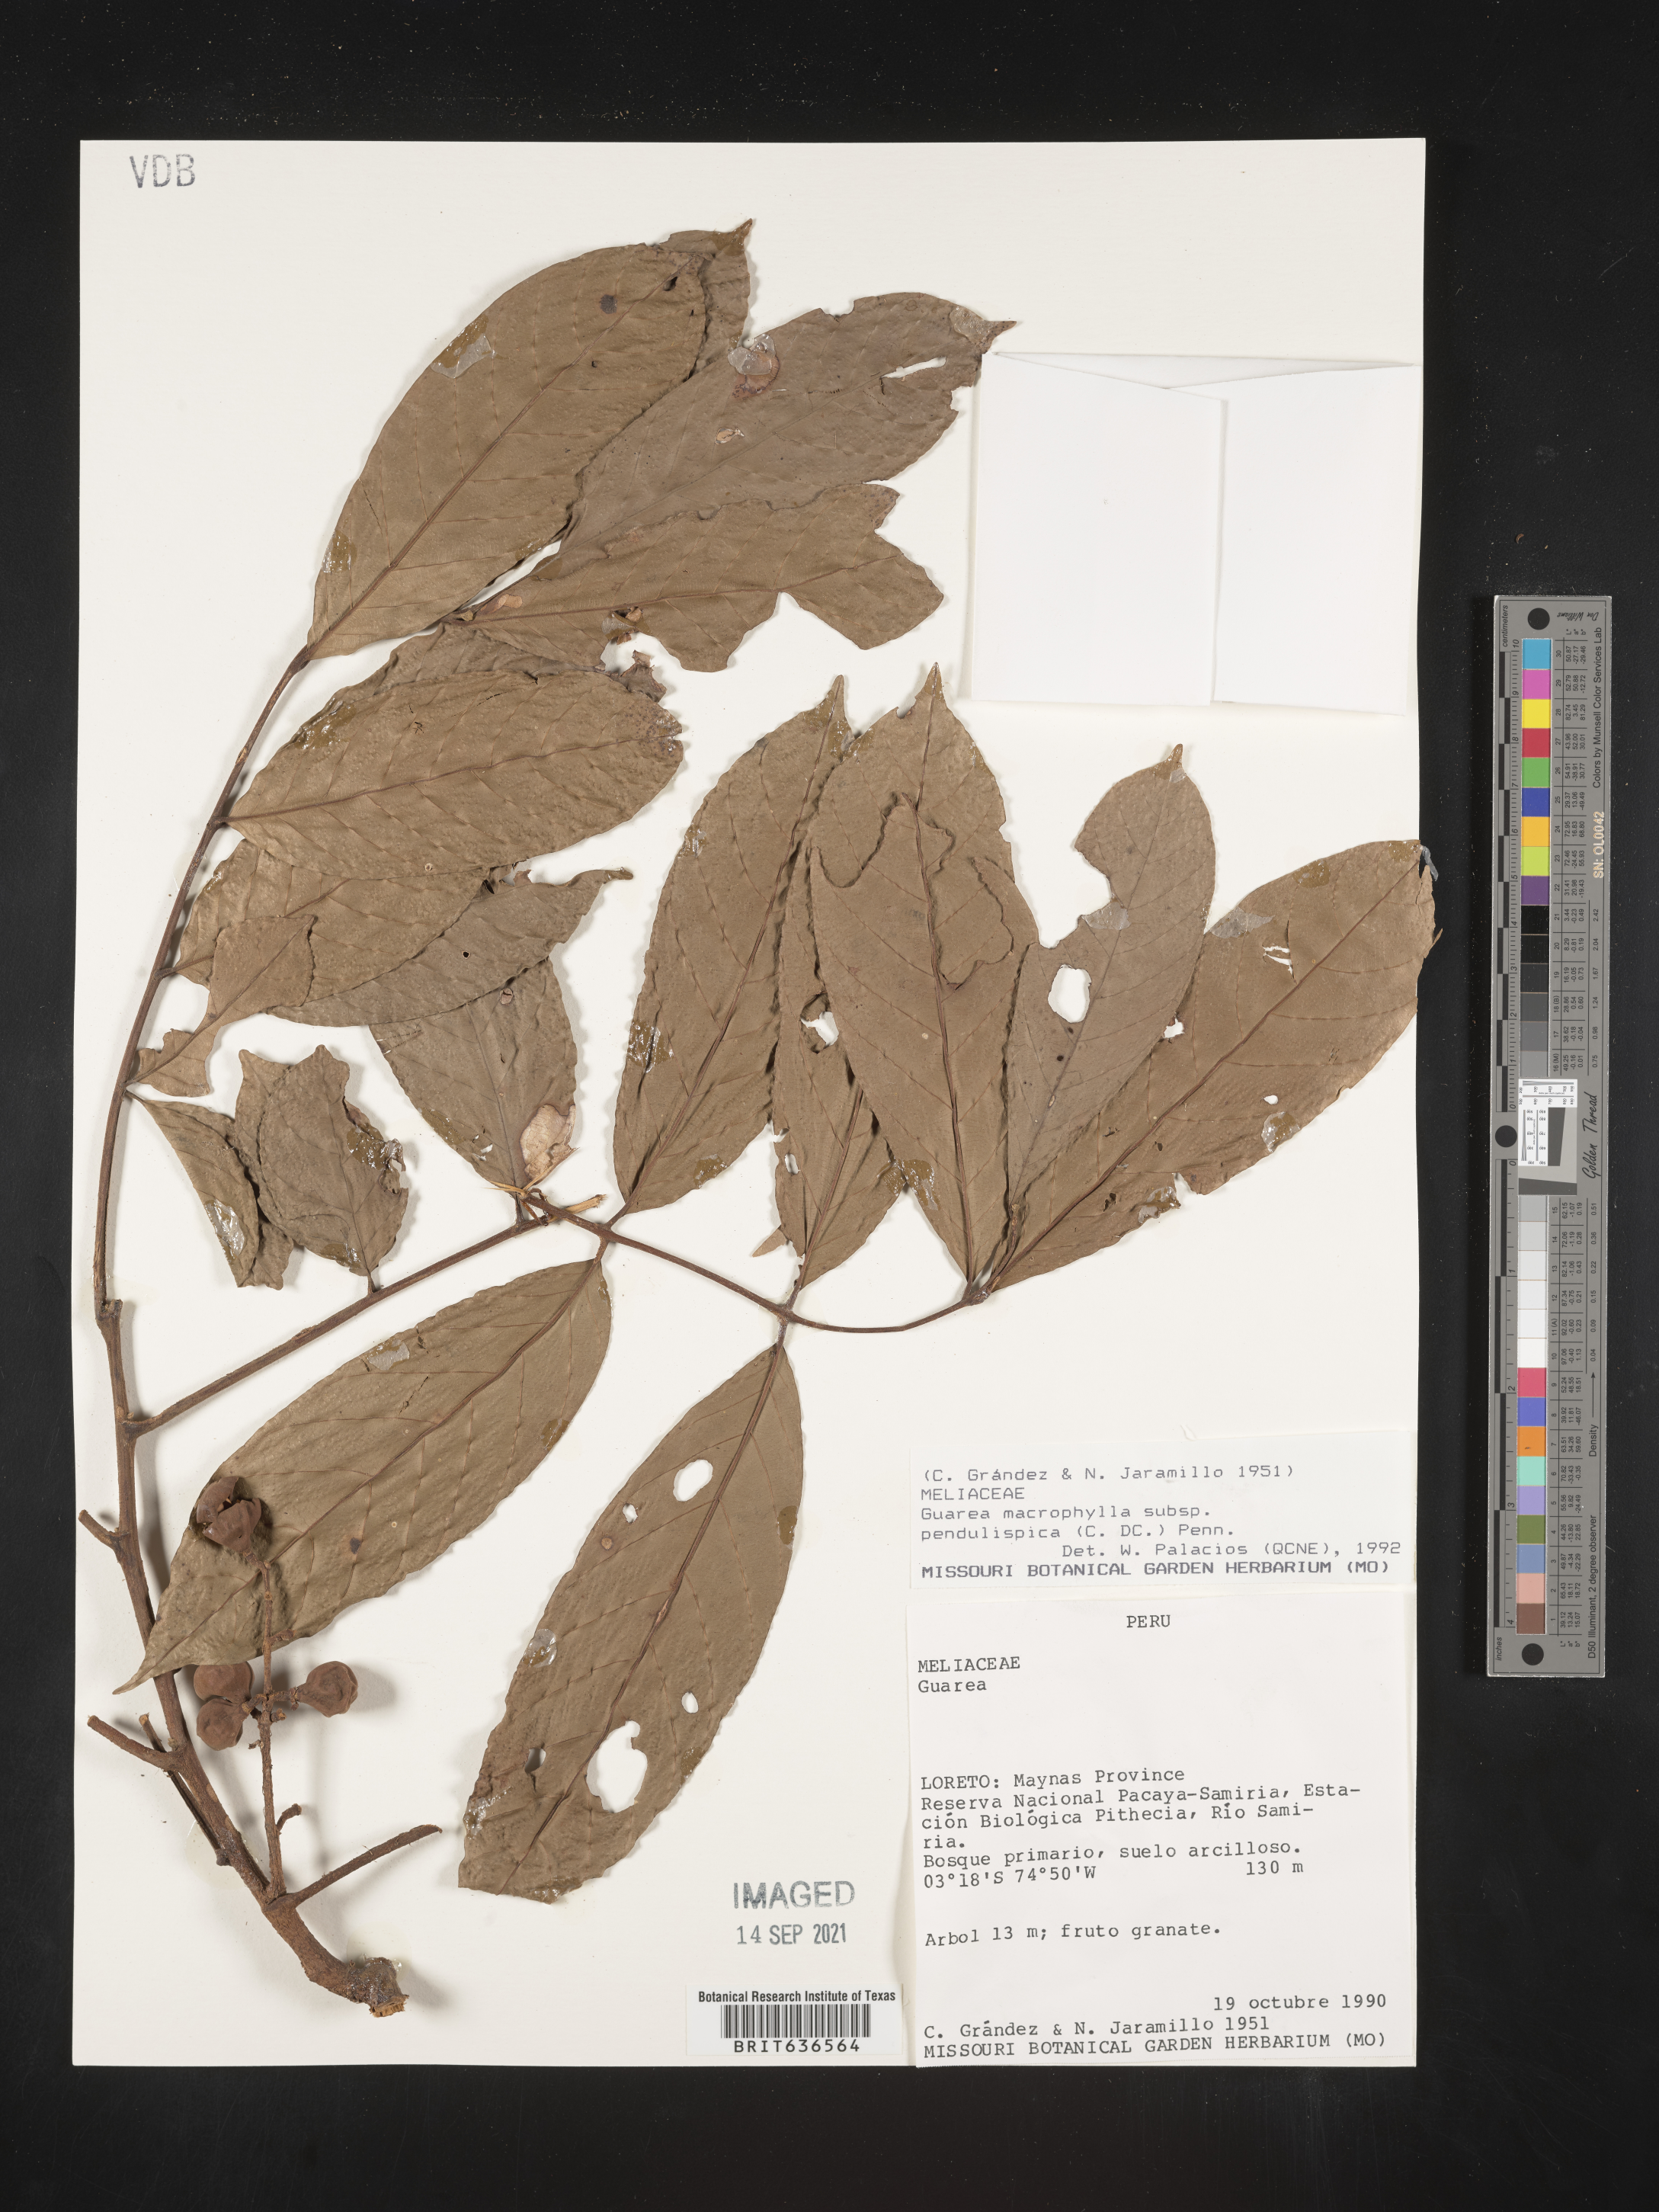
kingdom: Plantae
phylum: Tracheophyta
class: Magnoliopsida
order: Sapindales
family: Meliaceae
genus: Guarea
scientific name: Guarea
